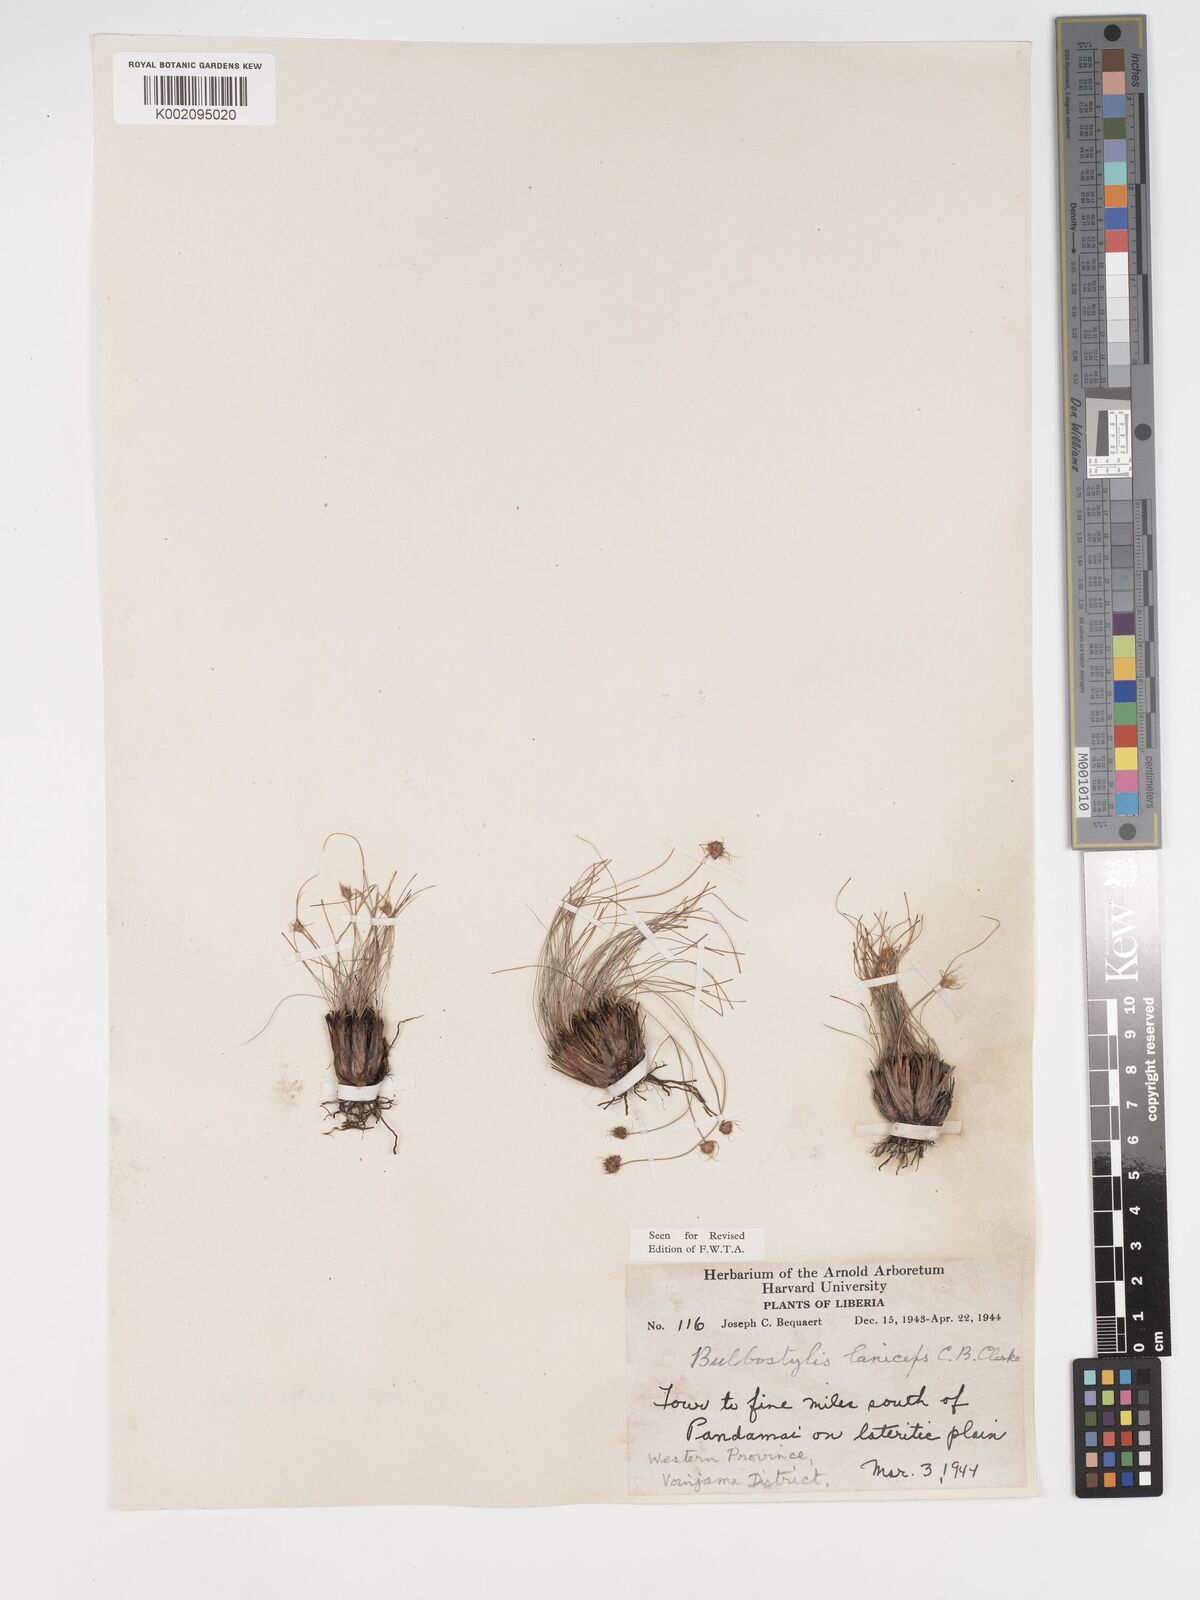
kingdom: Plantae
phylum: Tracheophyta
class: Liliopsida
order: Poales
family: Cyperaceae
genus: Bulbostylis
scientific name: Bulbostylis laniceps
